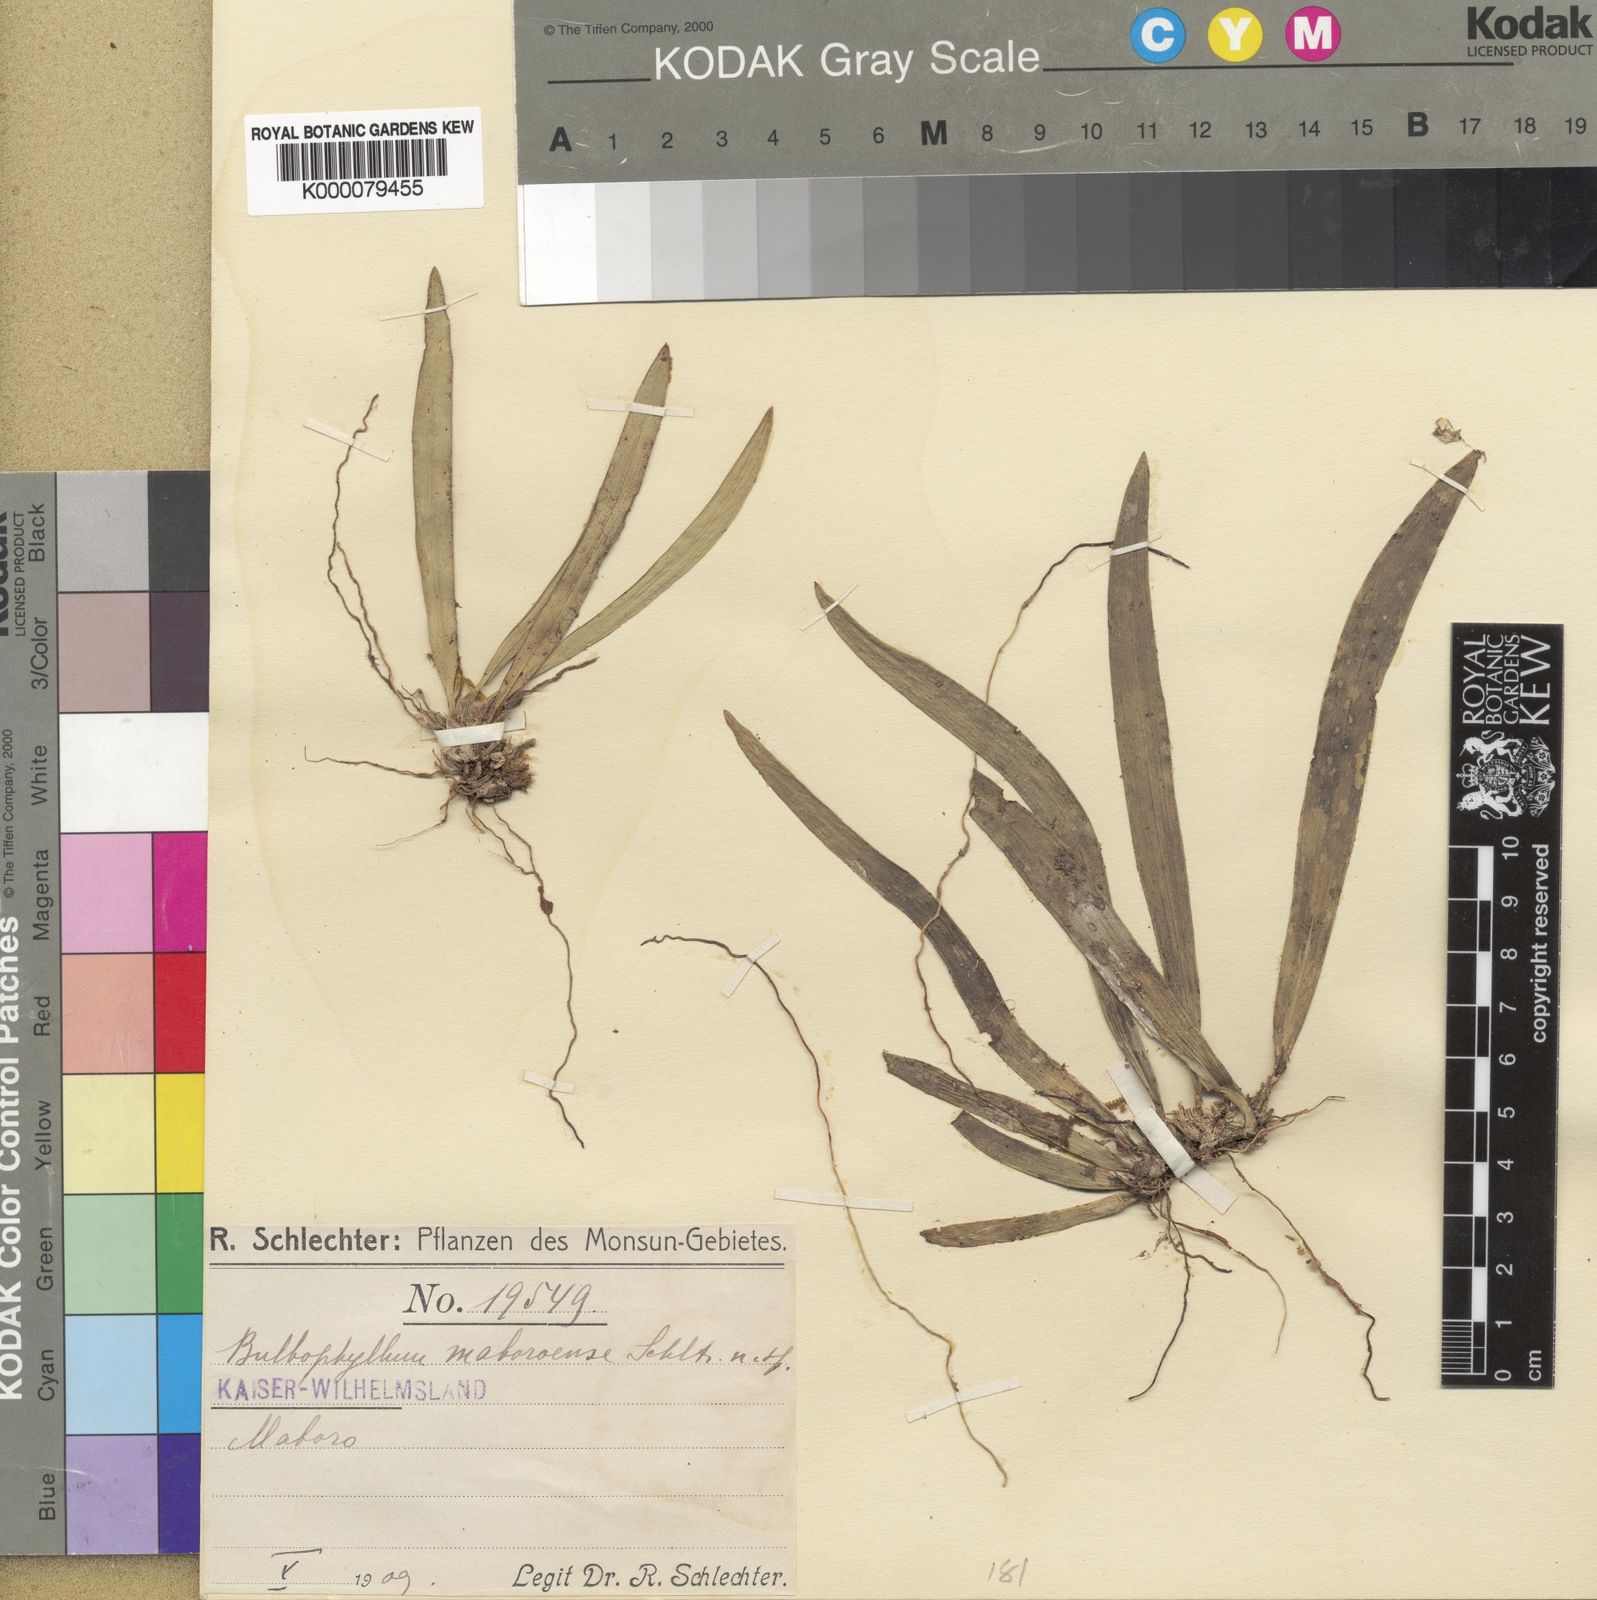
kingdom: Plantae
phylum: Tracheophyta
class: Liliopsida
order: Asparagales
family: Orchidaceae
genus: Bulbophyllum
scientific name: Bulbophyllum maboroense
